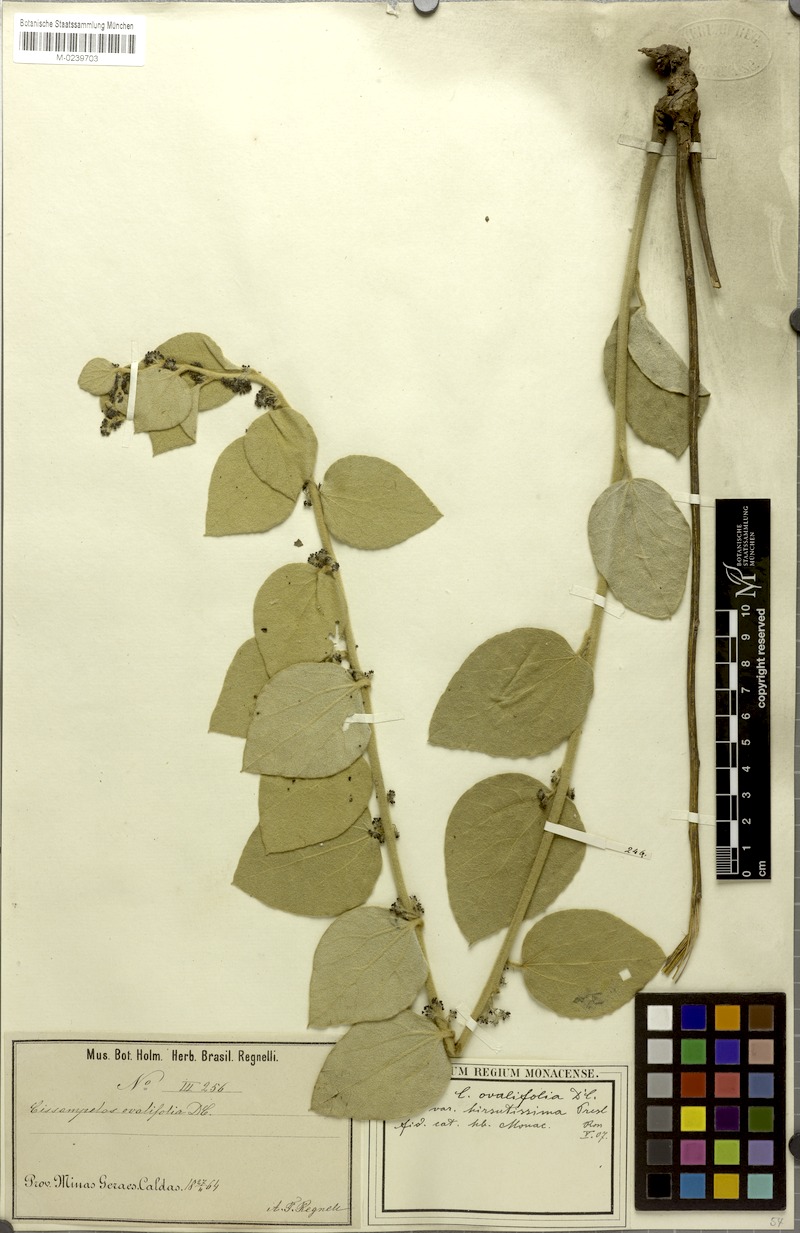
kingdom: Plantae
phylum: Tracheophyta
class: Magnoliopsida
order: Ranunculales
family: Menispermaceae
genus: Cissampelos
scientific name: Cissampelos ovalifolia
